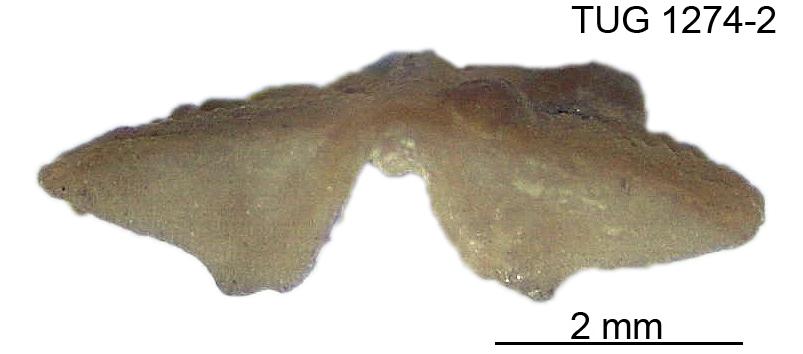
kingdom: Animalia
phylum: Brachiopoda
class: Rhynchonellata
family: Hesperorthidae
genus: Ptychopleurella
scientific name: Ptychopleurella pirguensis
